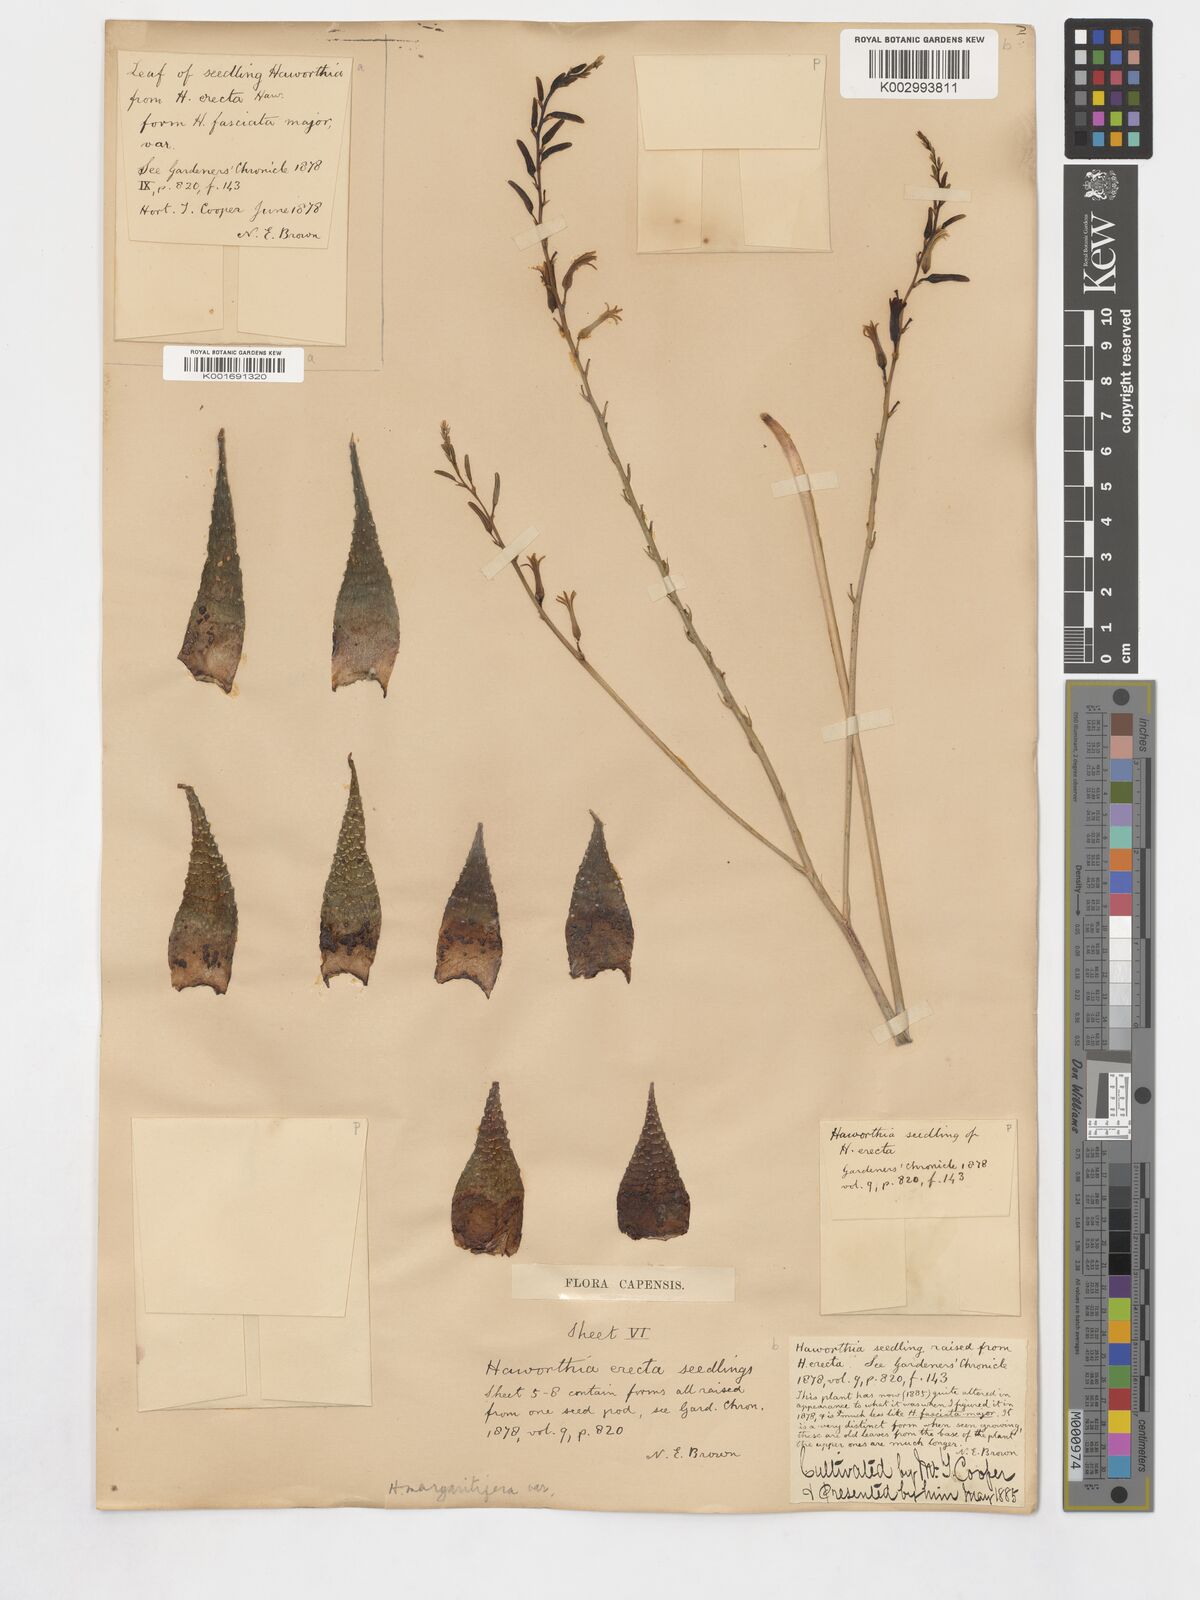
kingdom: Plantae
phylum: Tracheophyta
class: Liliopsida
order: Asparagales
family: Asphodelaceae
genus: Haworthiopsis
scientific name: Haworthiopsis fasciata
